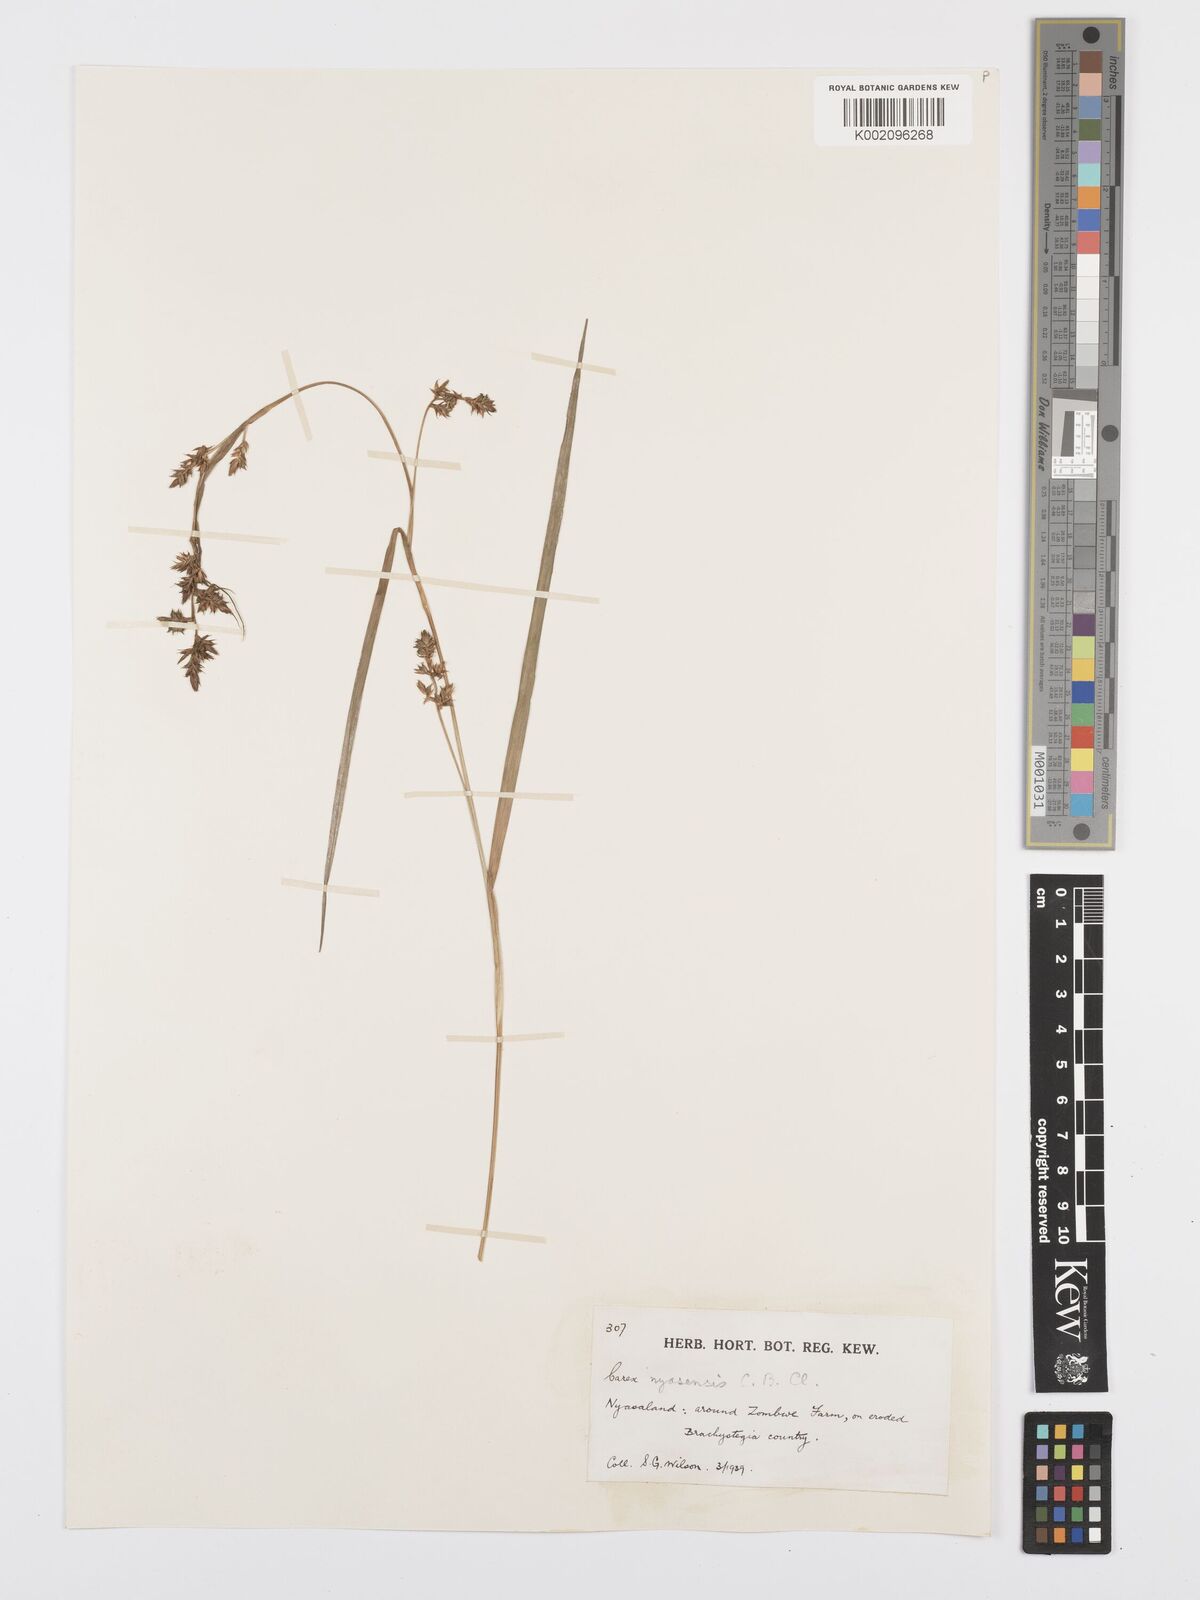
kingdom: Plantae
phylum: Tracheophyta
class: Liliopsida
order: Poales
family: Cyperaceae
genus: Carex
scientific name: Carex spicatopaniculata
